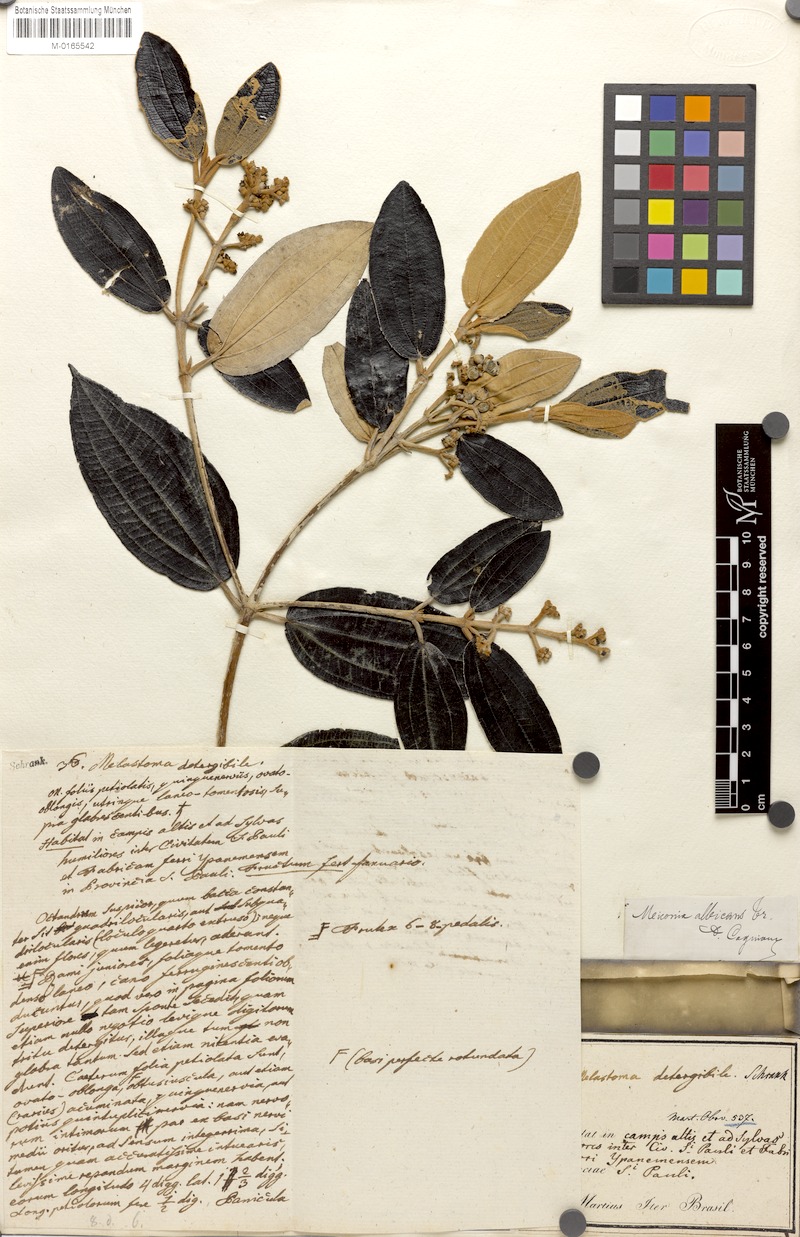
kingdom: Plantae
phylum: Tracheophyta
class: Magnoliopsida
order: Myrtales
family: Melastomataceae
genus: Miconia
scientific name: Miconia albicans
